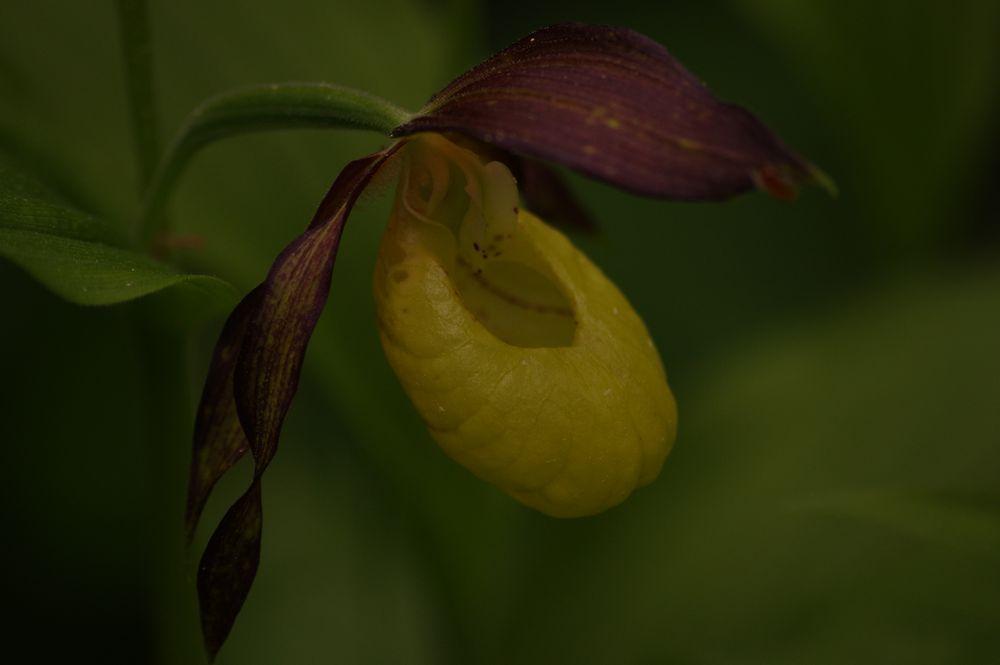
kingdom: Plantae
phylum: Tracheophyta
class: Liliopsida
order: Asparagales
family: Orchidaceae
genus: Cypripedium
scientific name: Cypripedium calceolus
